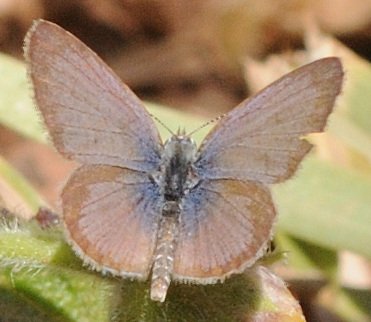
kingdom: Animalia
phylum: Arthropoda
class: Insecta
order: Lepidoptera
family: Lycaenidae
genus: Zizeeria
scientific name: Zizeeria knysna
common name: Dark Grass Blue
